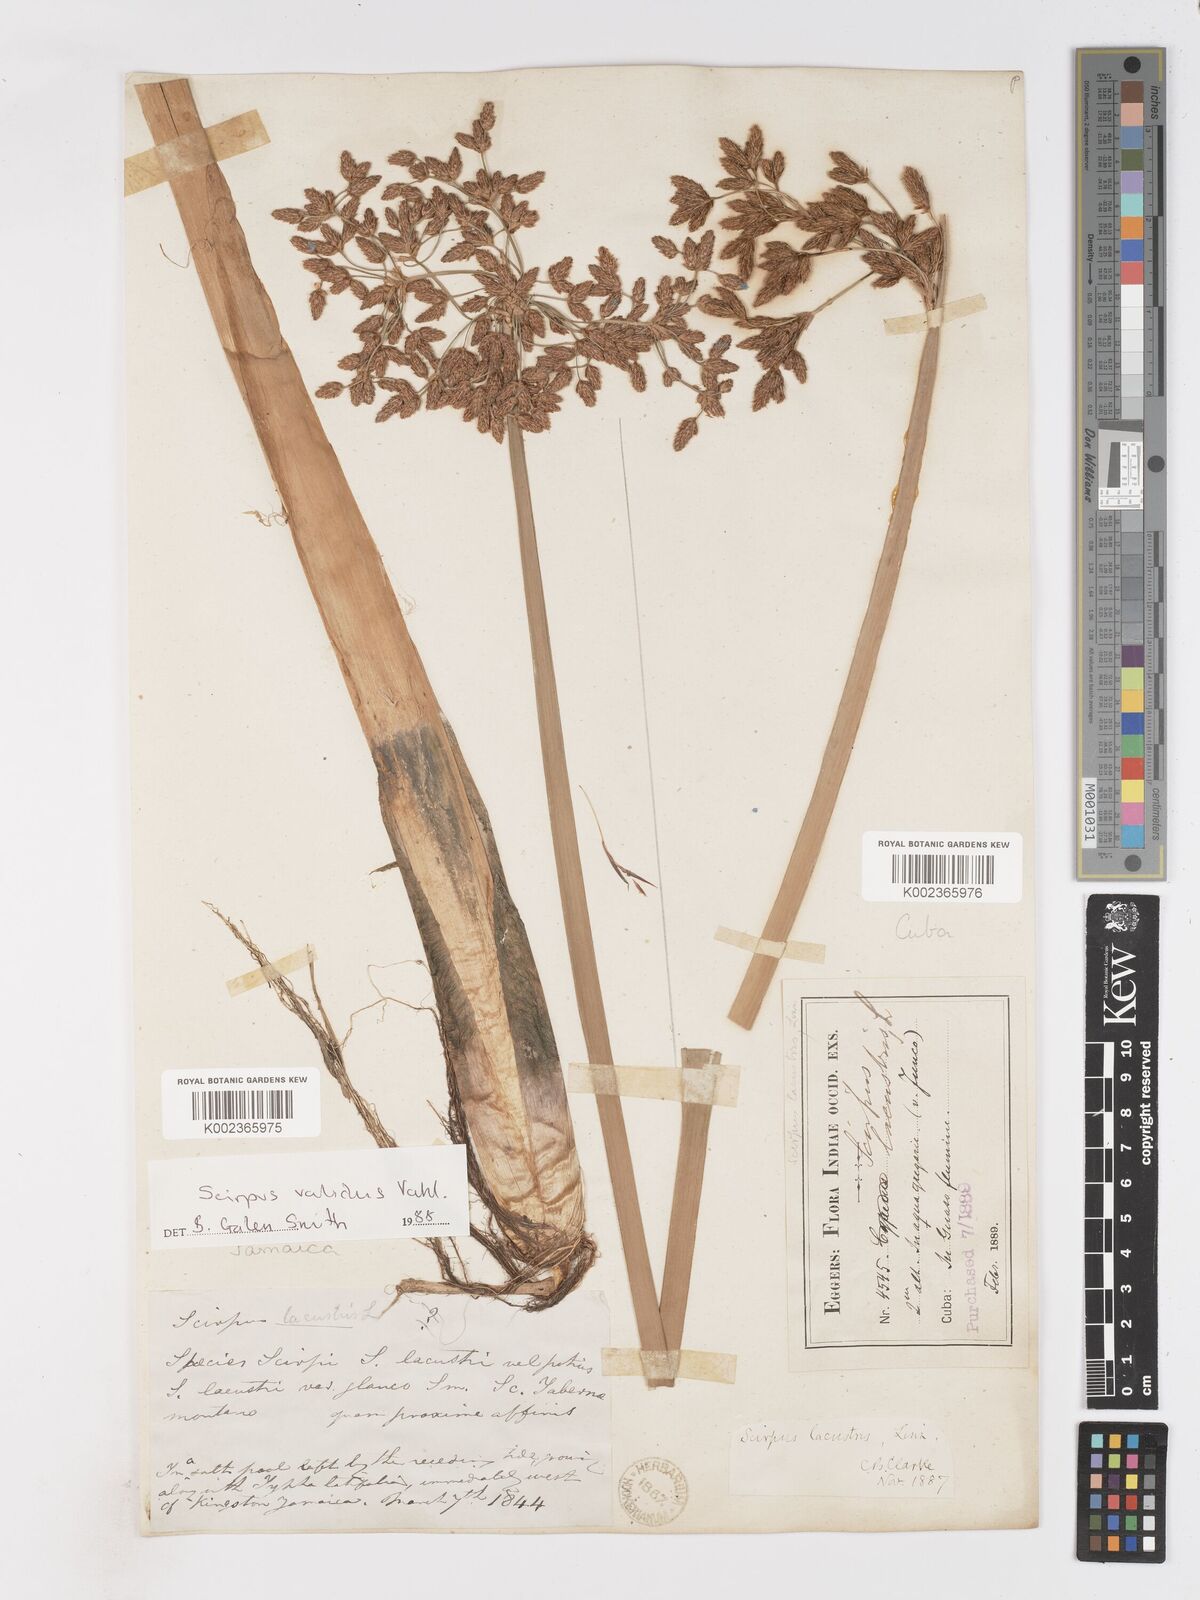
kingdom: Plantae
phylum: Tracheophyta
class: Liliopsida
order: Poales
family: Cyperaceae
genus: Schoenoplectus
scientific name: Schoenoplectus lacustris
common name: Common club-rush
